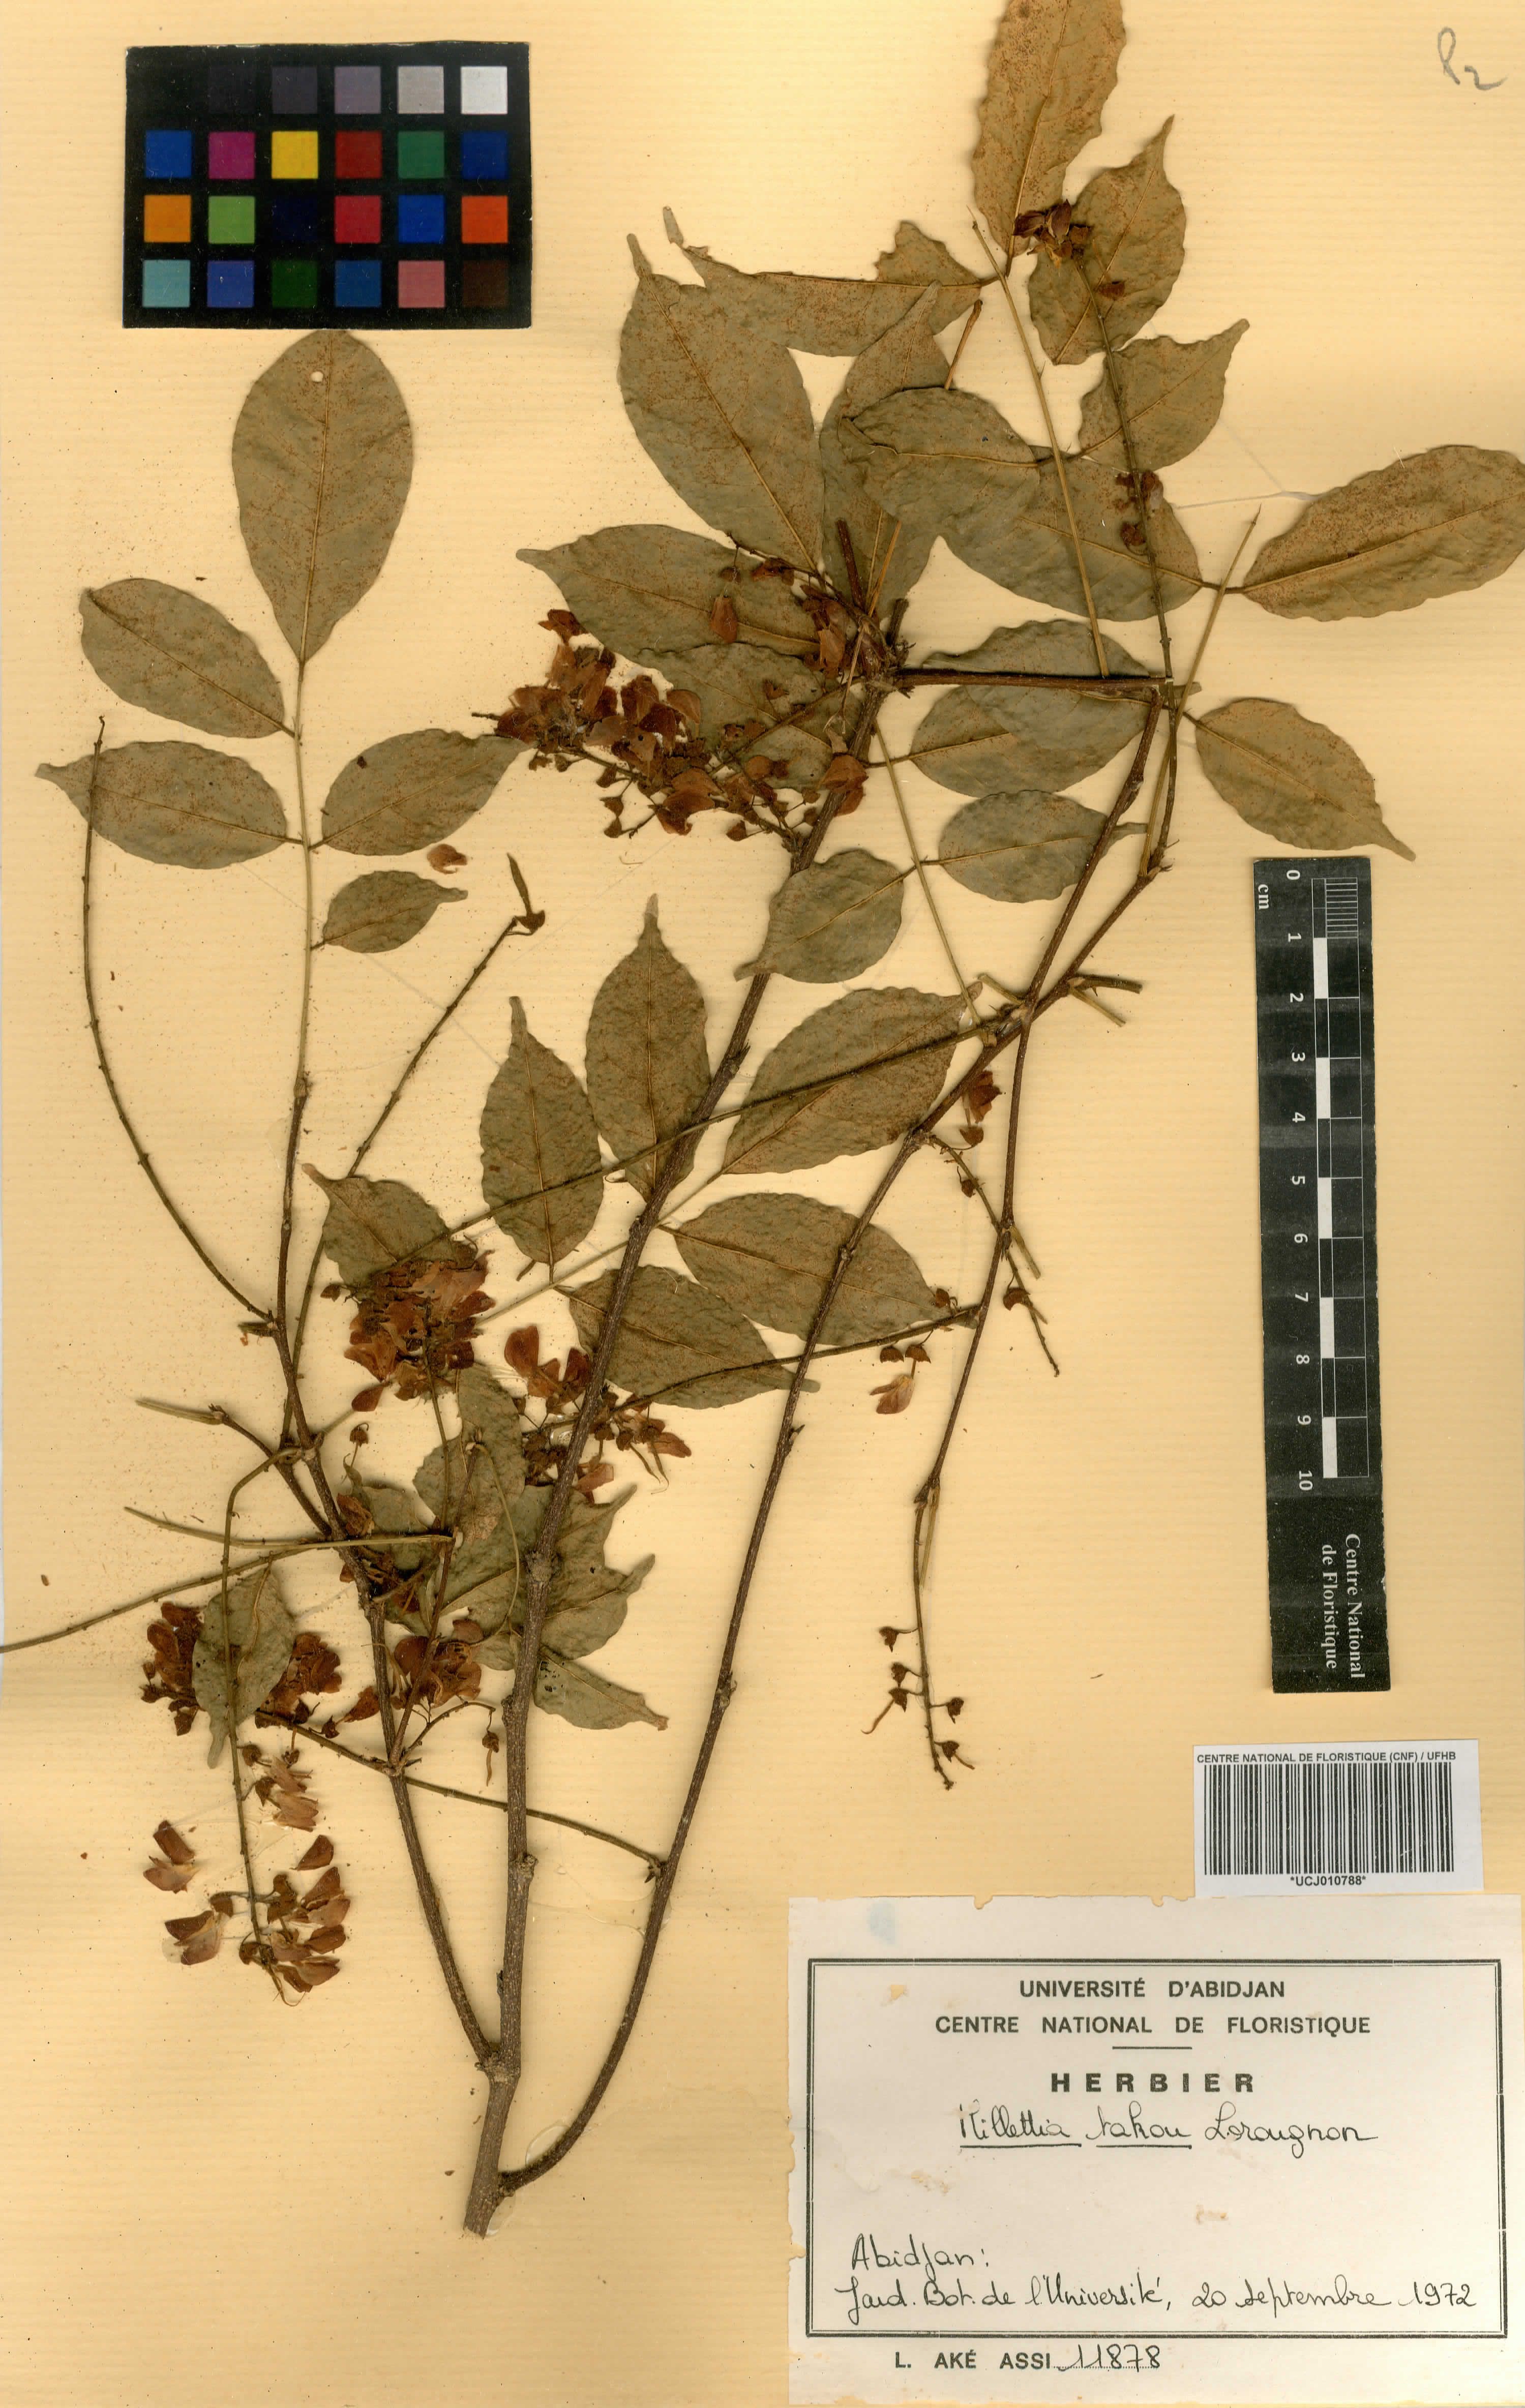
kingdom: Plantae
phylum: Tracheophyta
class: Magnoliopsida
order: Fabales
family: Fabaceae
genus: Millettia
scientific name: Millettia takou
